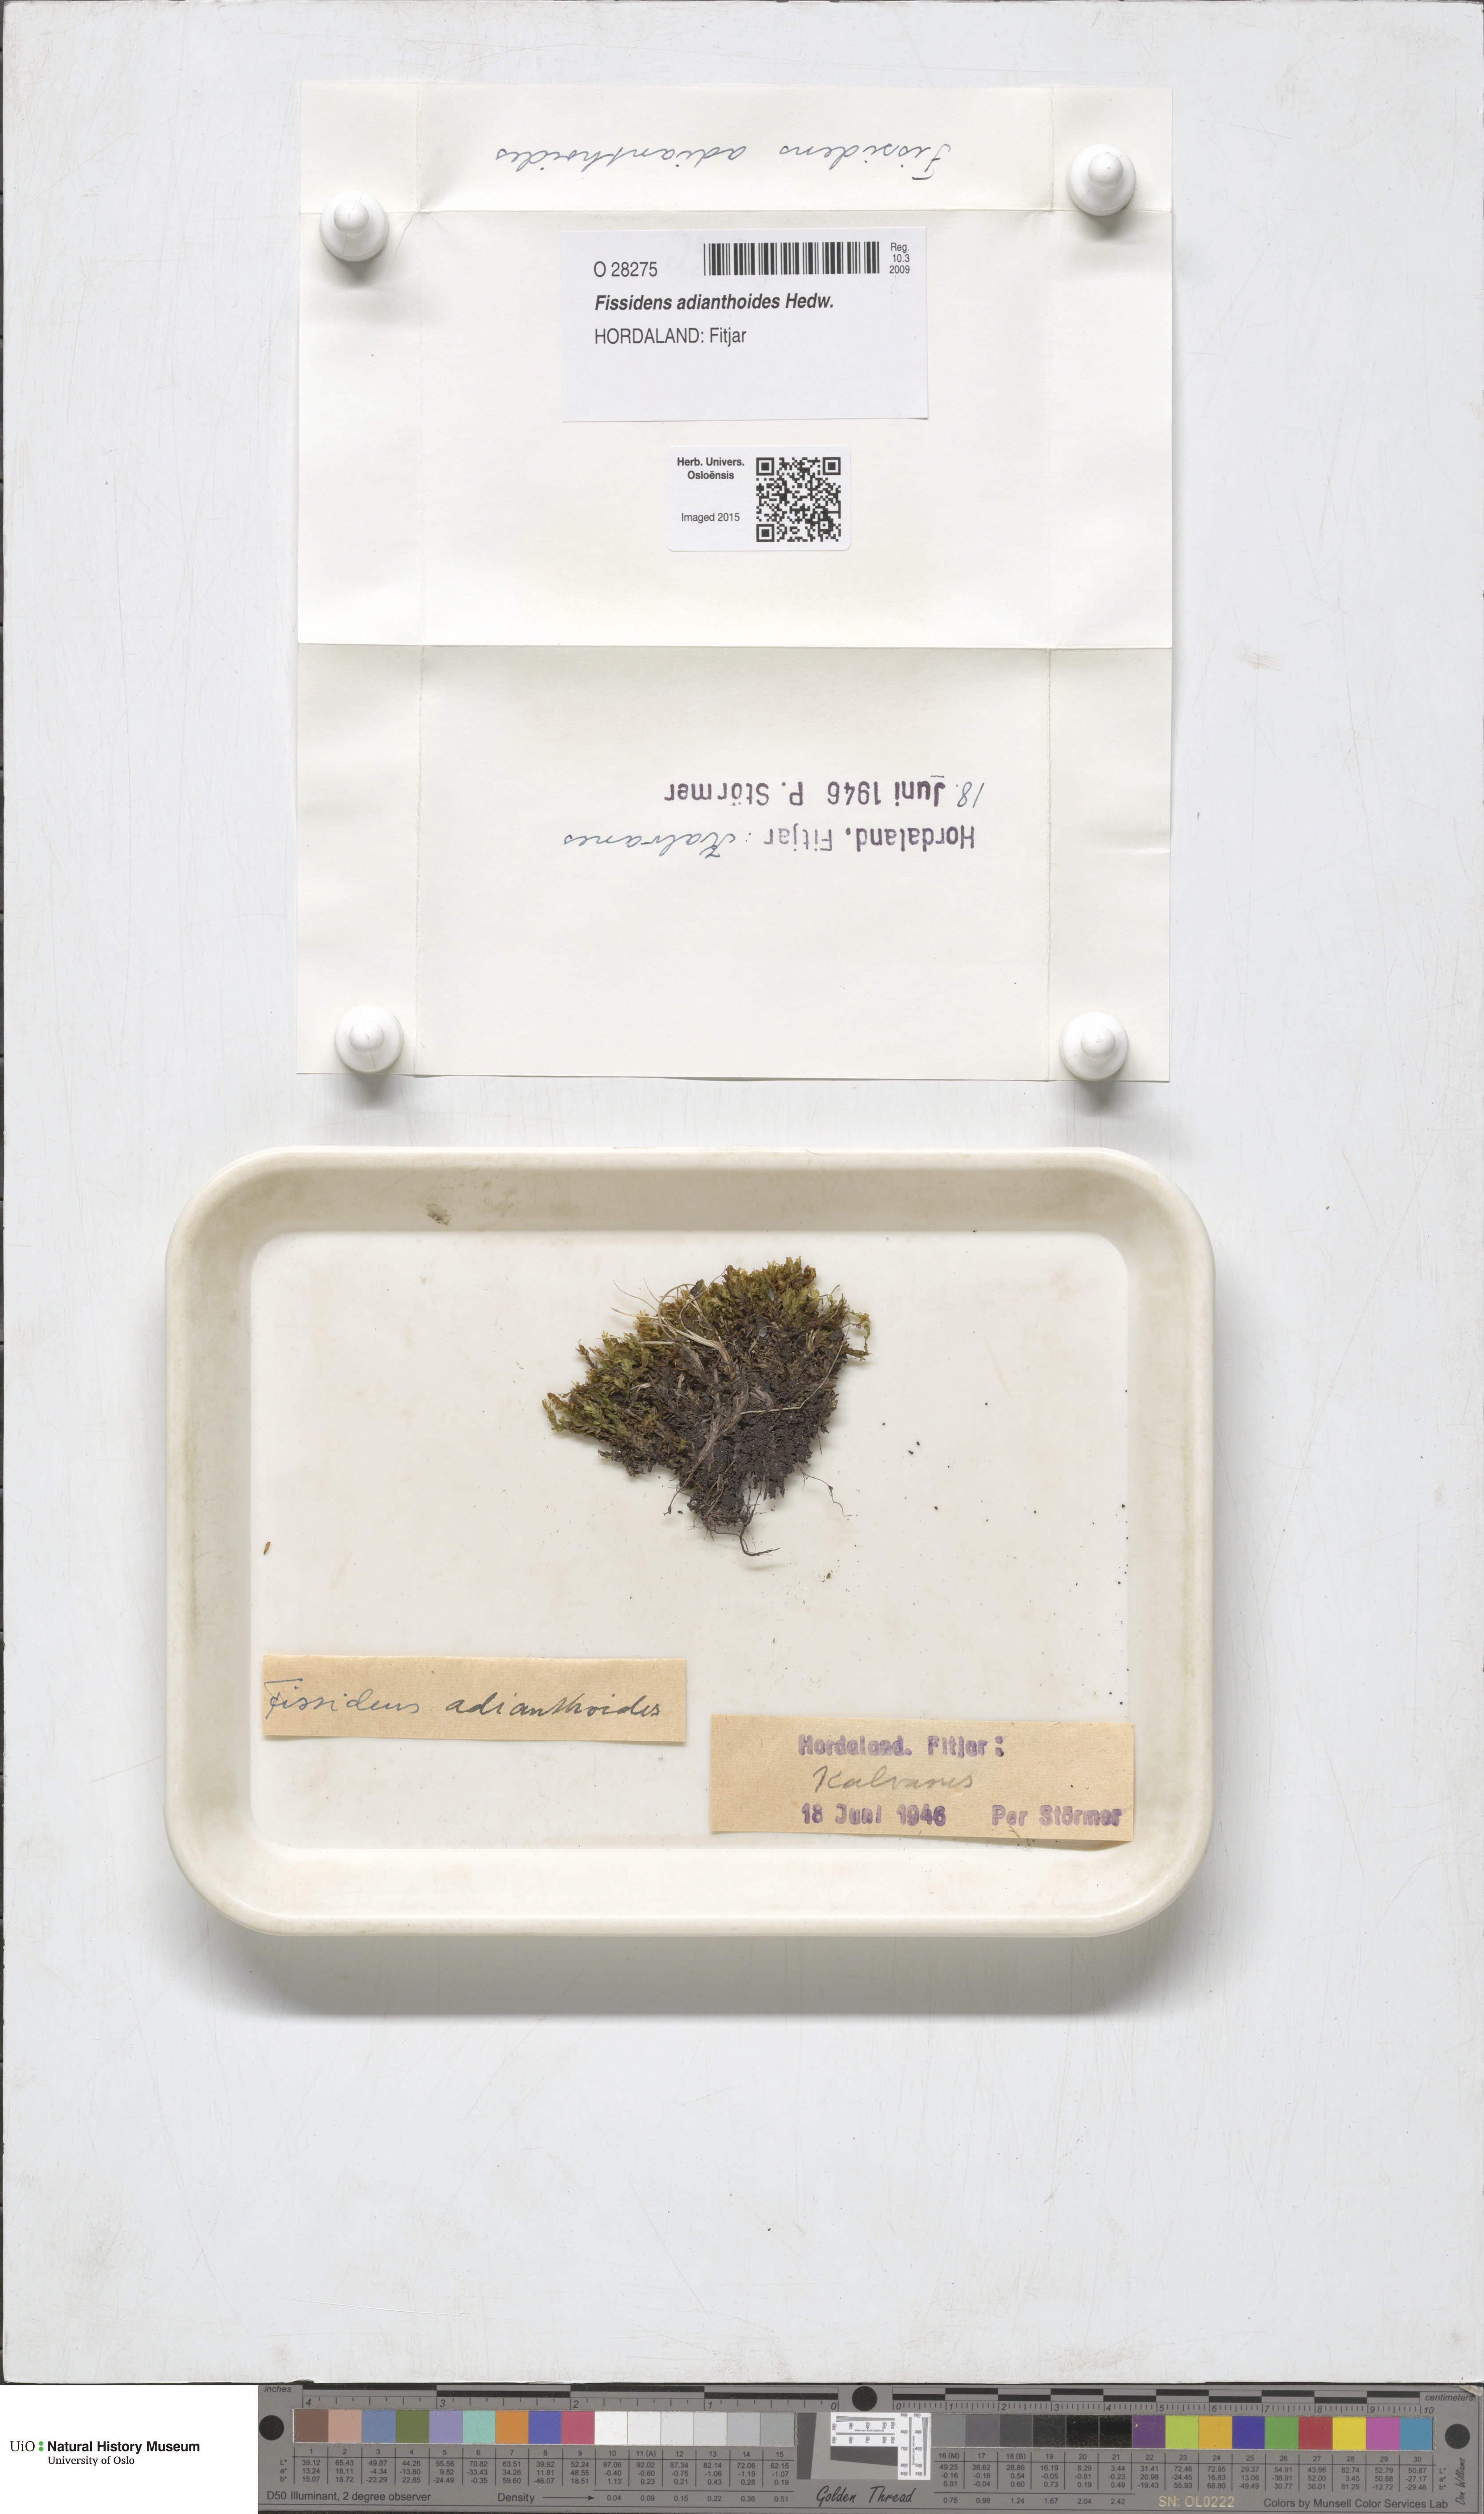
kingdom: Plantae
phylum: Bryophyta
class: Bryopsida
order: Dicranales
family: Fissidentaceae
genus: Fissidens
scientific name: Fissidens adianthoides
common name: Maidenhair pocket moss
